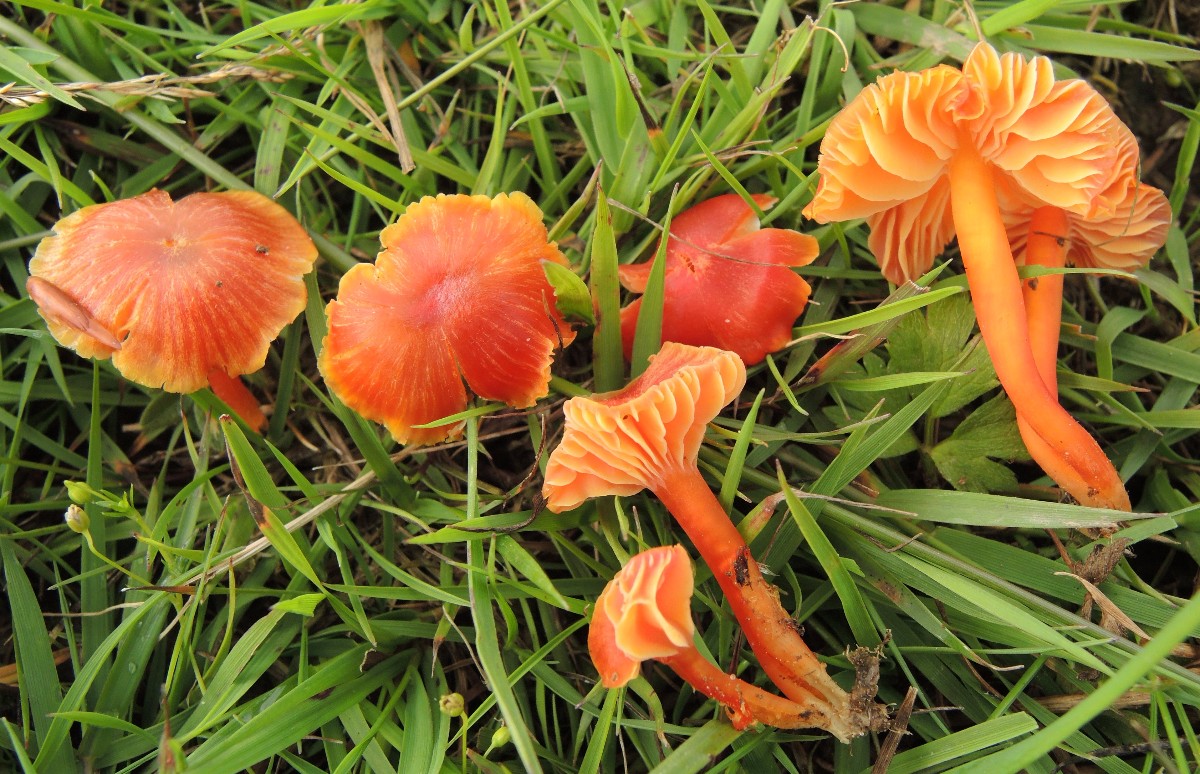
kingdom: Fungi
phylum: Basidiomycota
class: Agaricomycetes
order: Agaricales
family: Hygrophoraceae
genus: Hygrocybe
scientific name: Hygrocybe subpapillata
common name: papil-vokshat
